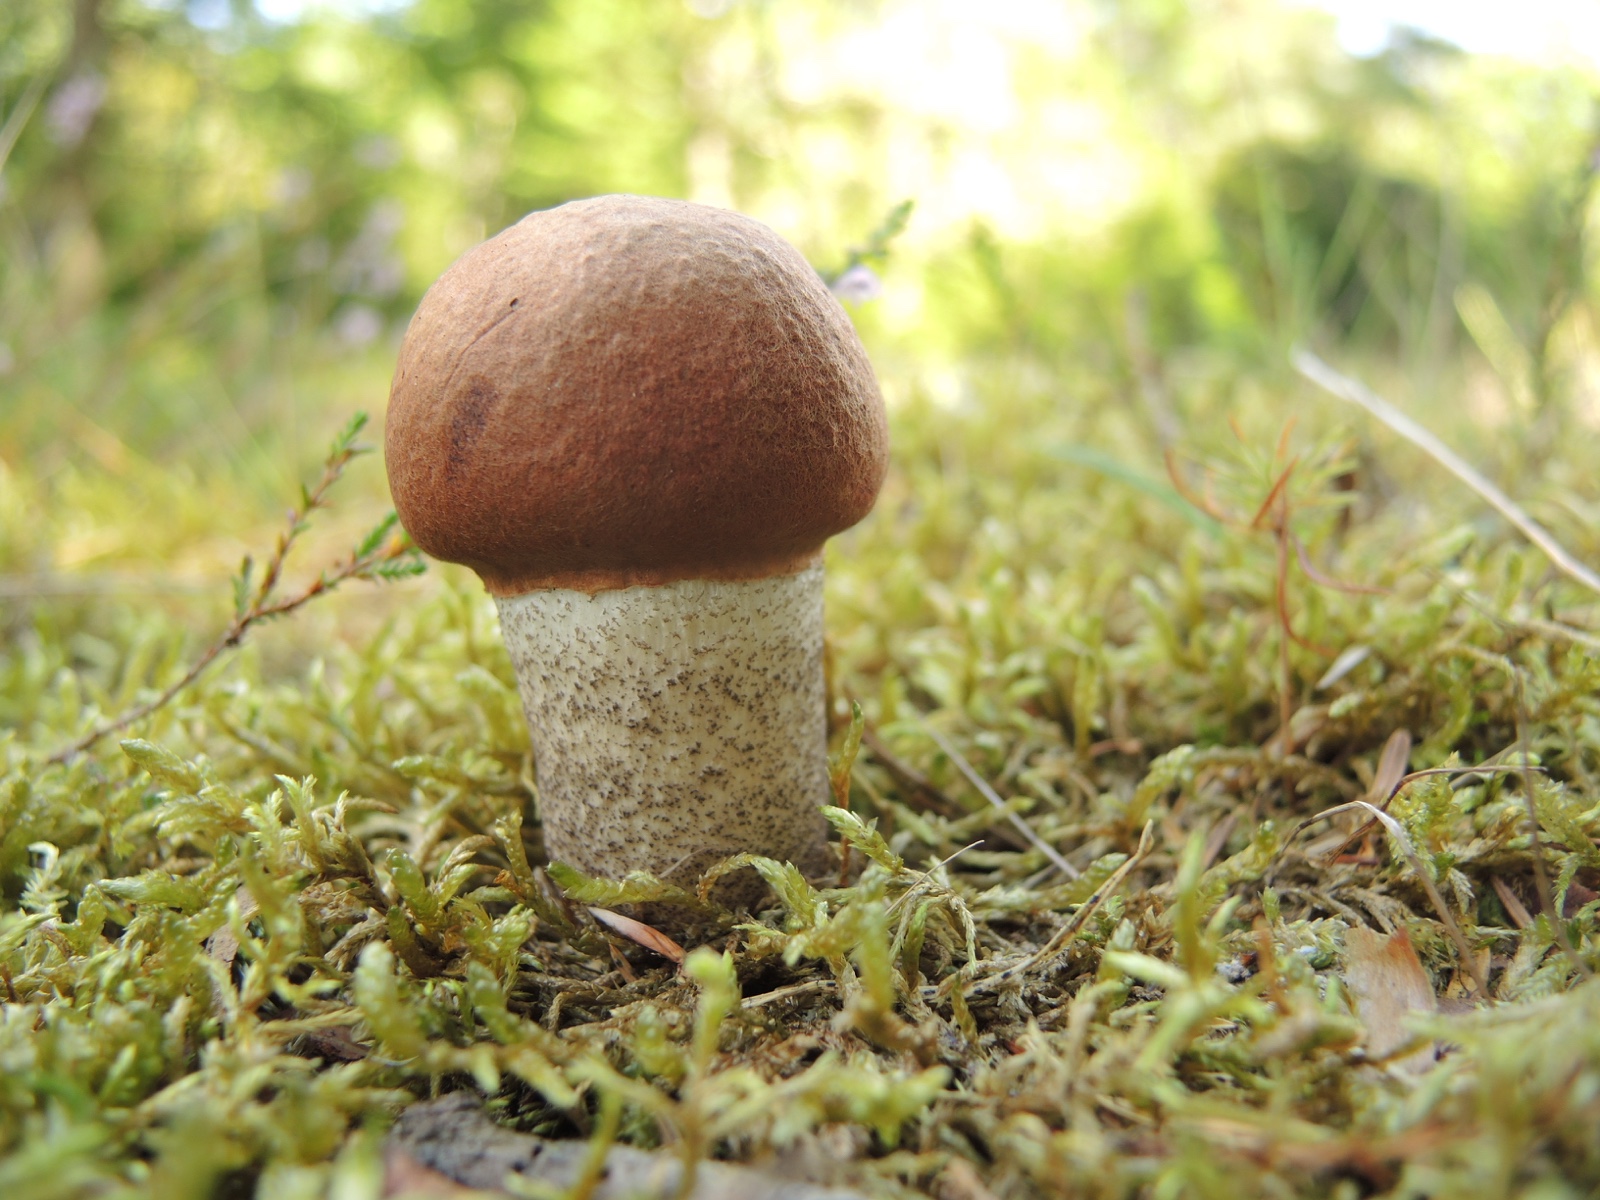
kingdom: Fungi
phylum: Basidiomycota
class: Agaricomycetes
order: Boletales
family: Boletaceae
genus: Leccinum
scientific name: Leccinum vulpinum
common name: fyrre-skælrørhat
